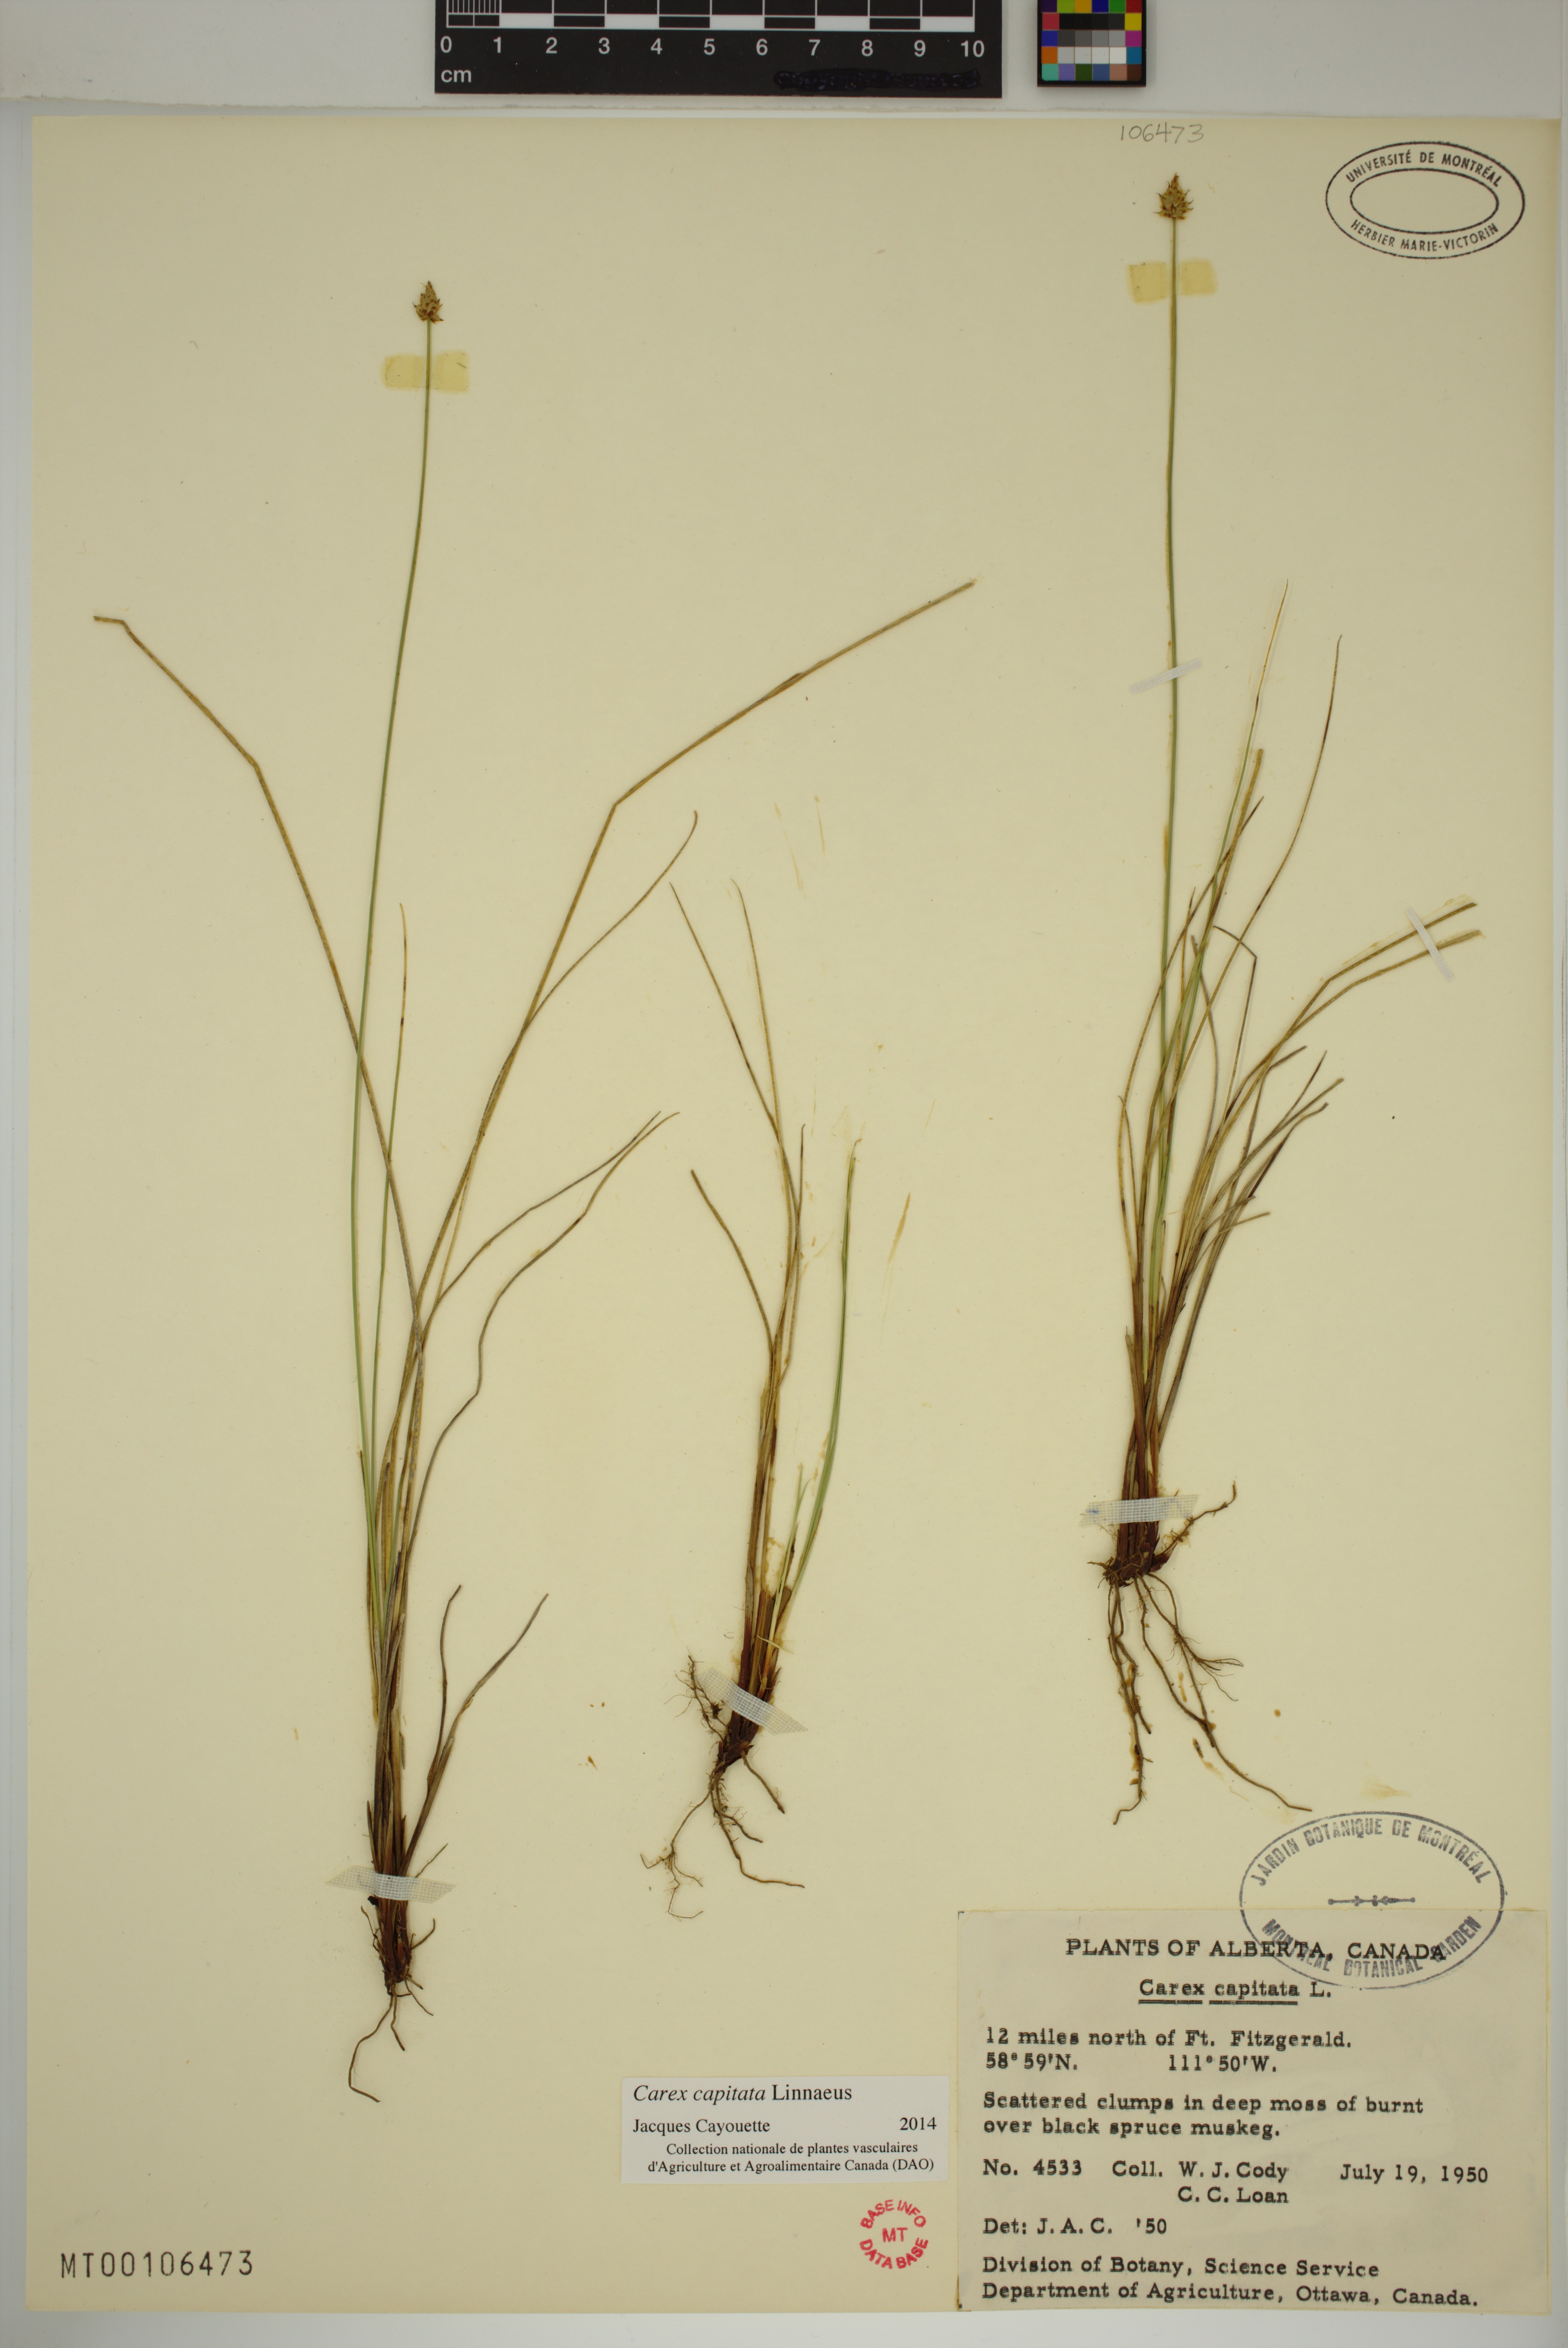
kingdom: Plantae
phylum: Tracheophyta
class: Liliopsida
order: Poales
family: Cyperaceae
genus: Carex
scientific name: Carex capitata
